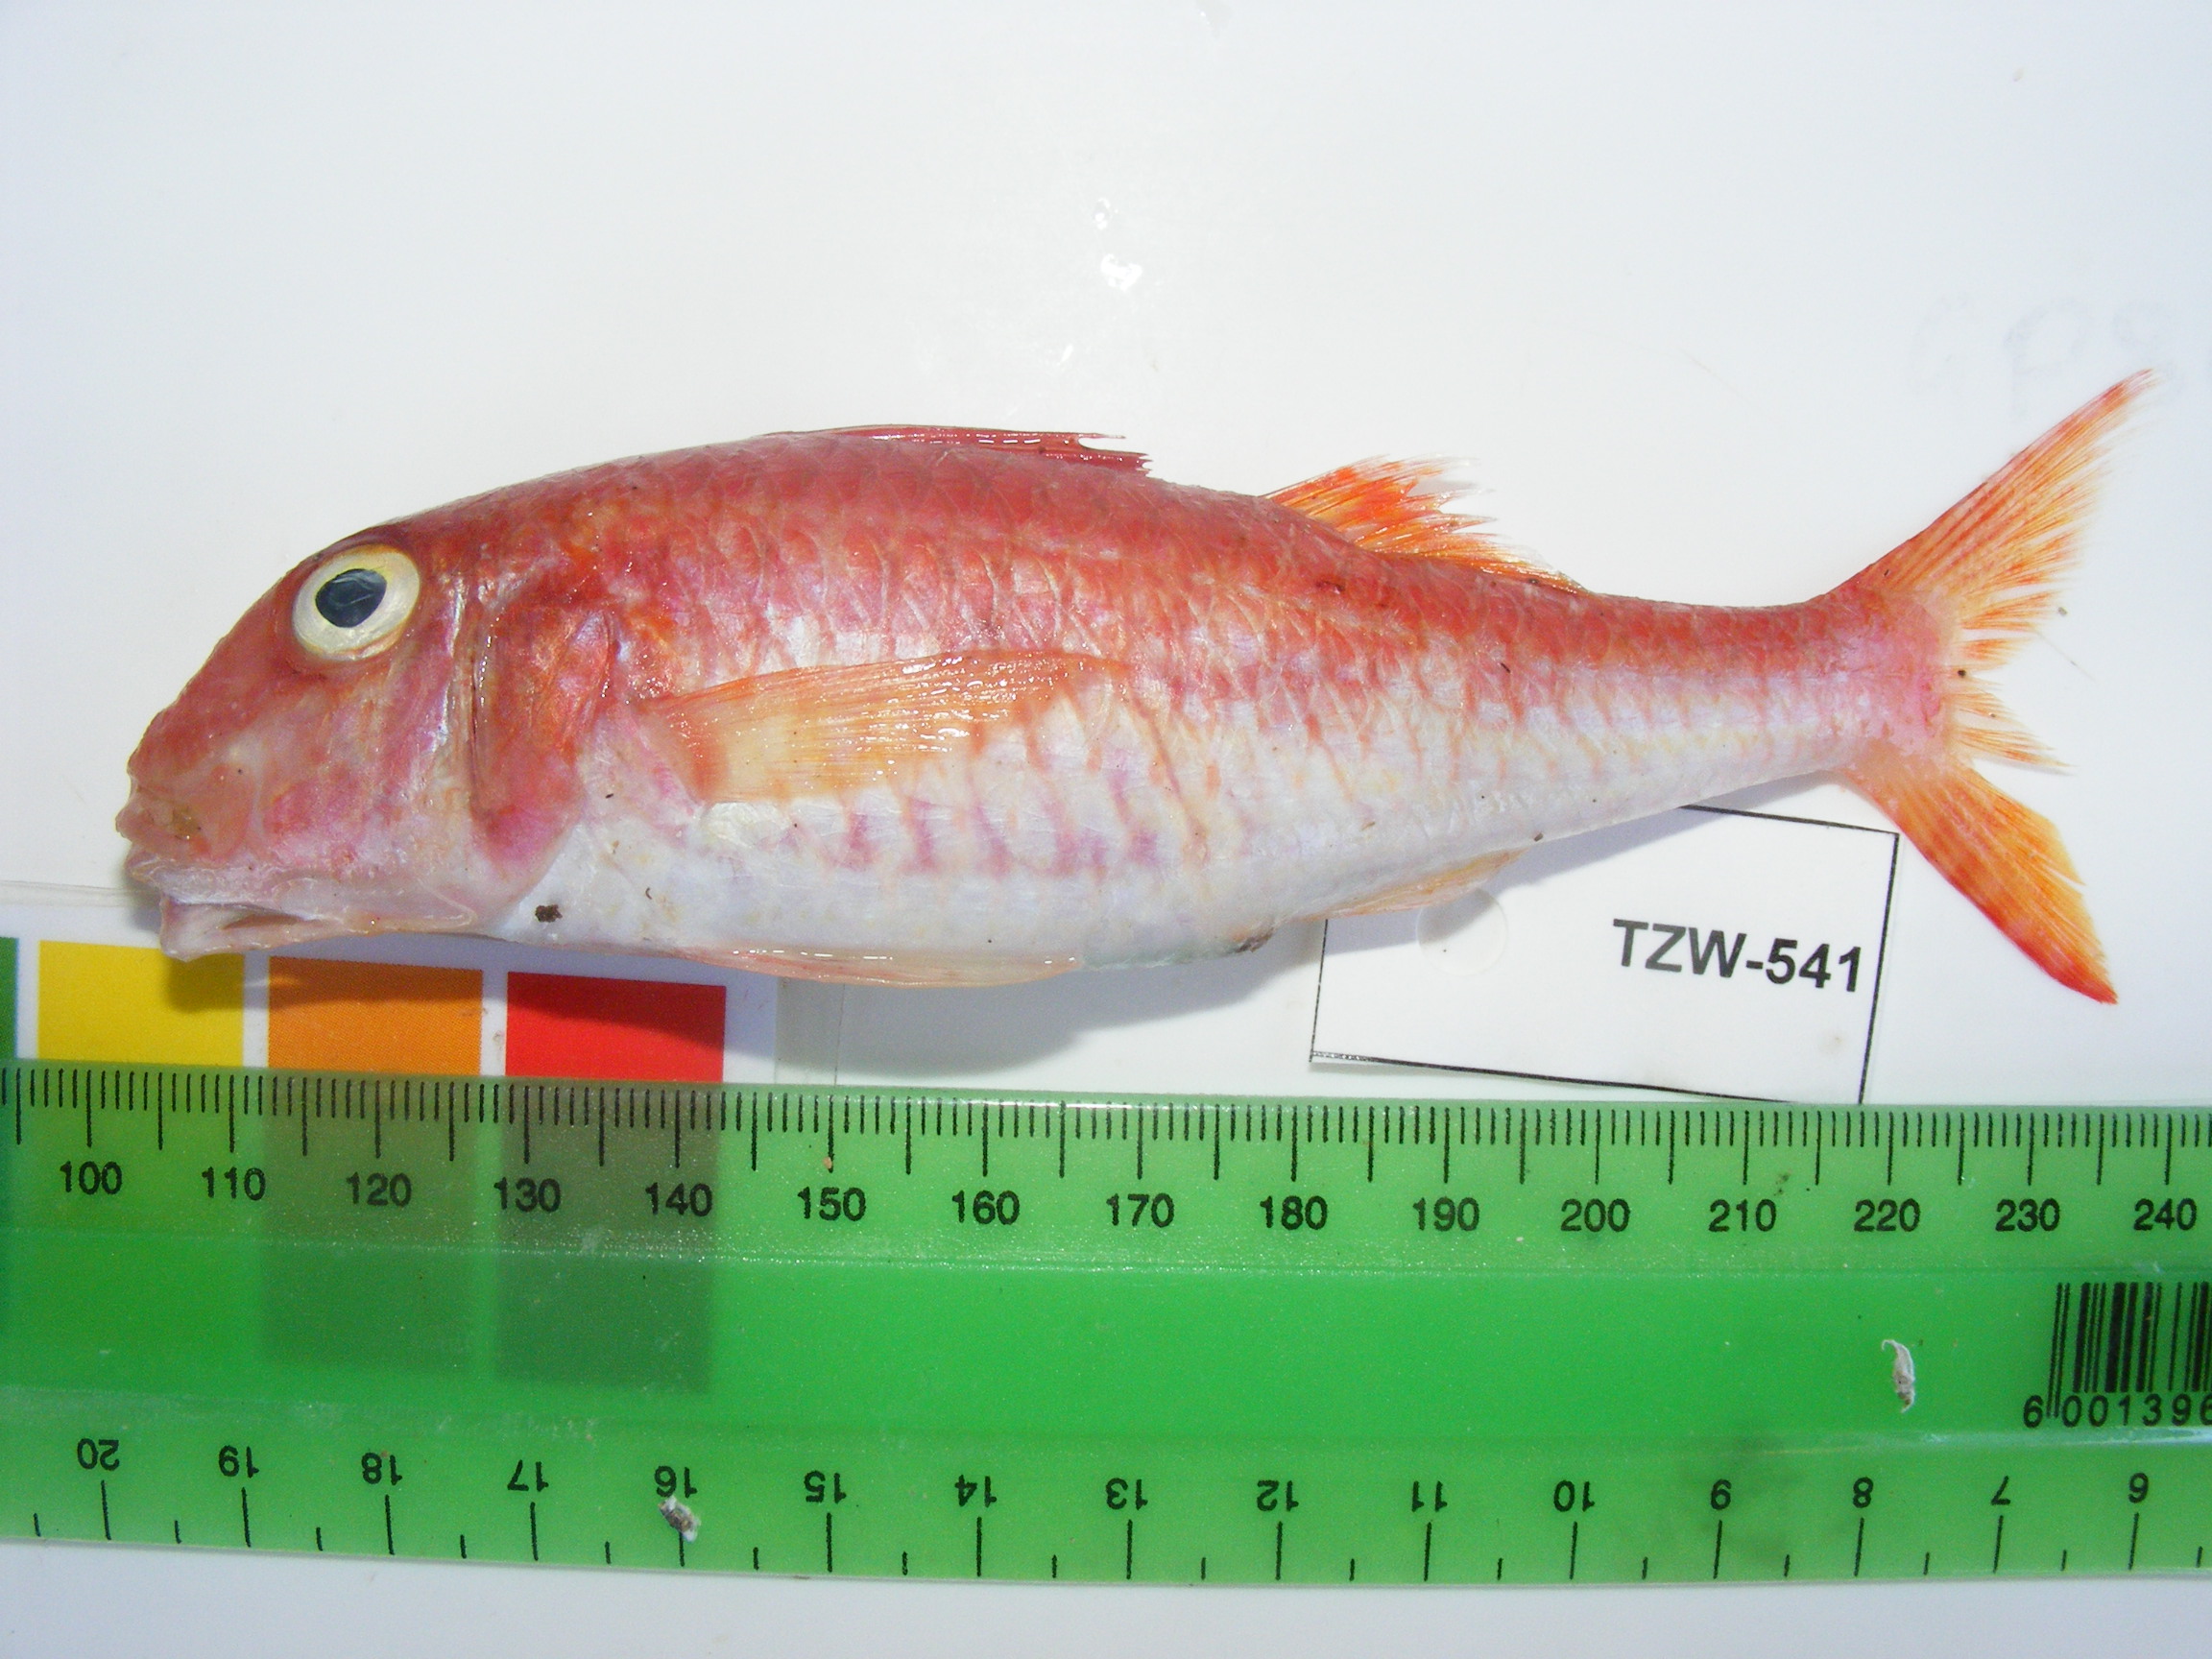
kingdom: Animalia
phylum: Chordata
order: Perciformes
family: Mullidae
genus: Parupeneus
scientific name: Parupeneus heptacanthus
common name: Cinnabar goatfish
